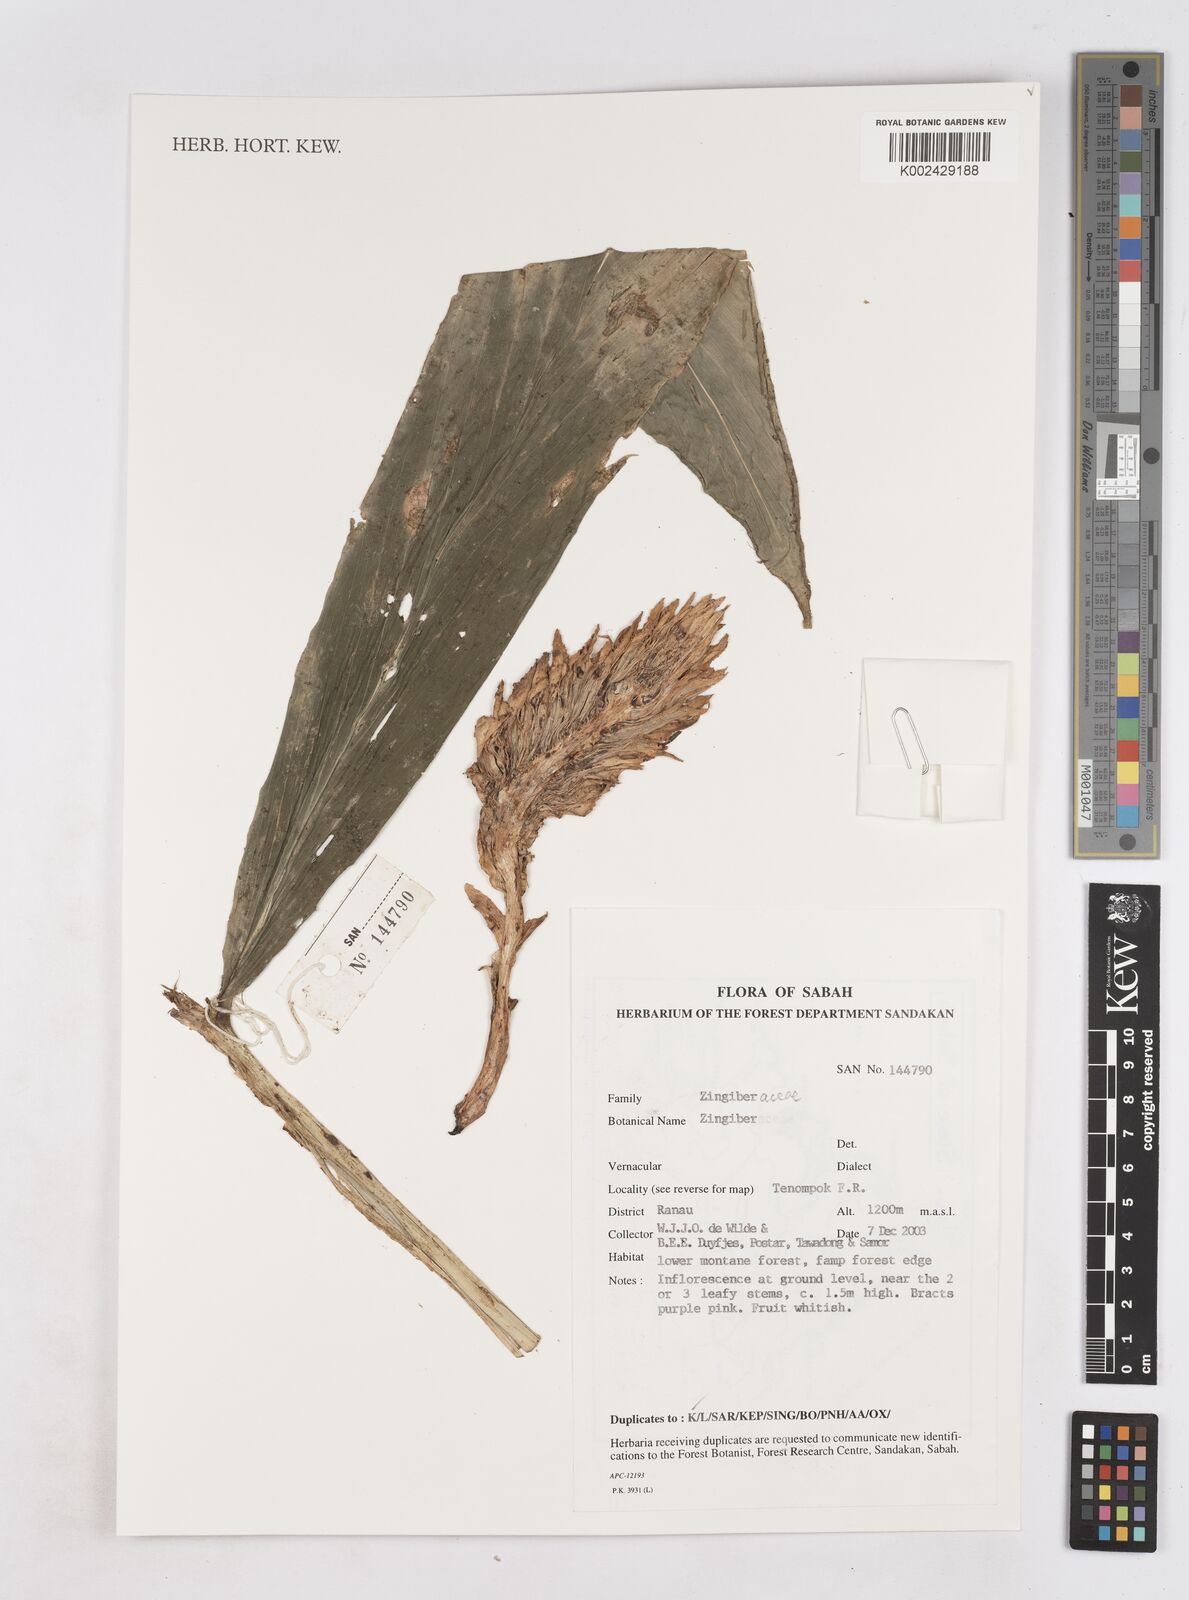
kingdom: Plantae
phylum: Tracheophyta
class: Liliopsida
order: Zingiberales
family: Zingiberaceae
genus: Zingiber
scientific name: Zingiber
